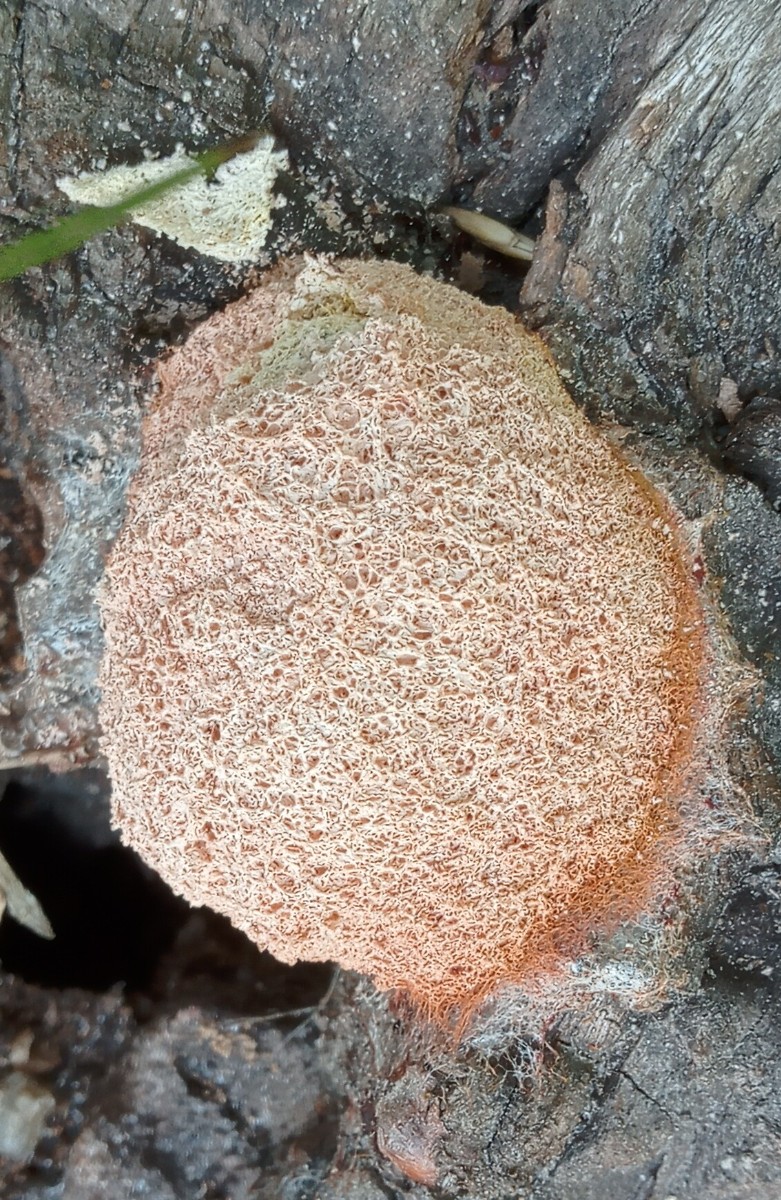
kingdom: Protozoa
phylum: Mycetozoa
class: Myxomycetes
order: Physarales
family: Physaraceae
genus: Fuligo
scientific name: Fuligo septica
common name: Dog vomit slime mold
